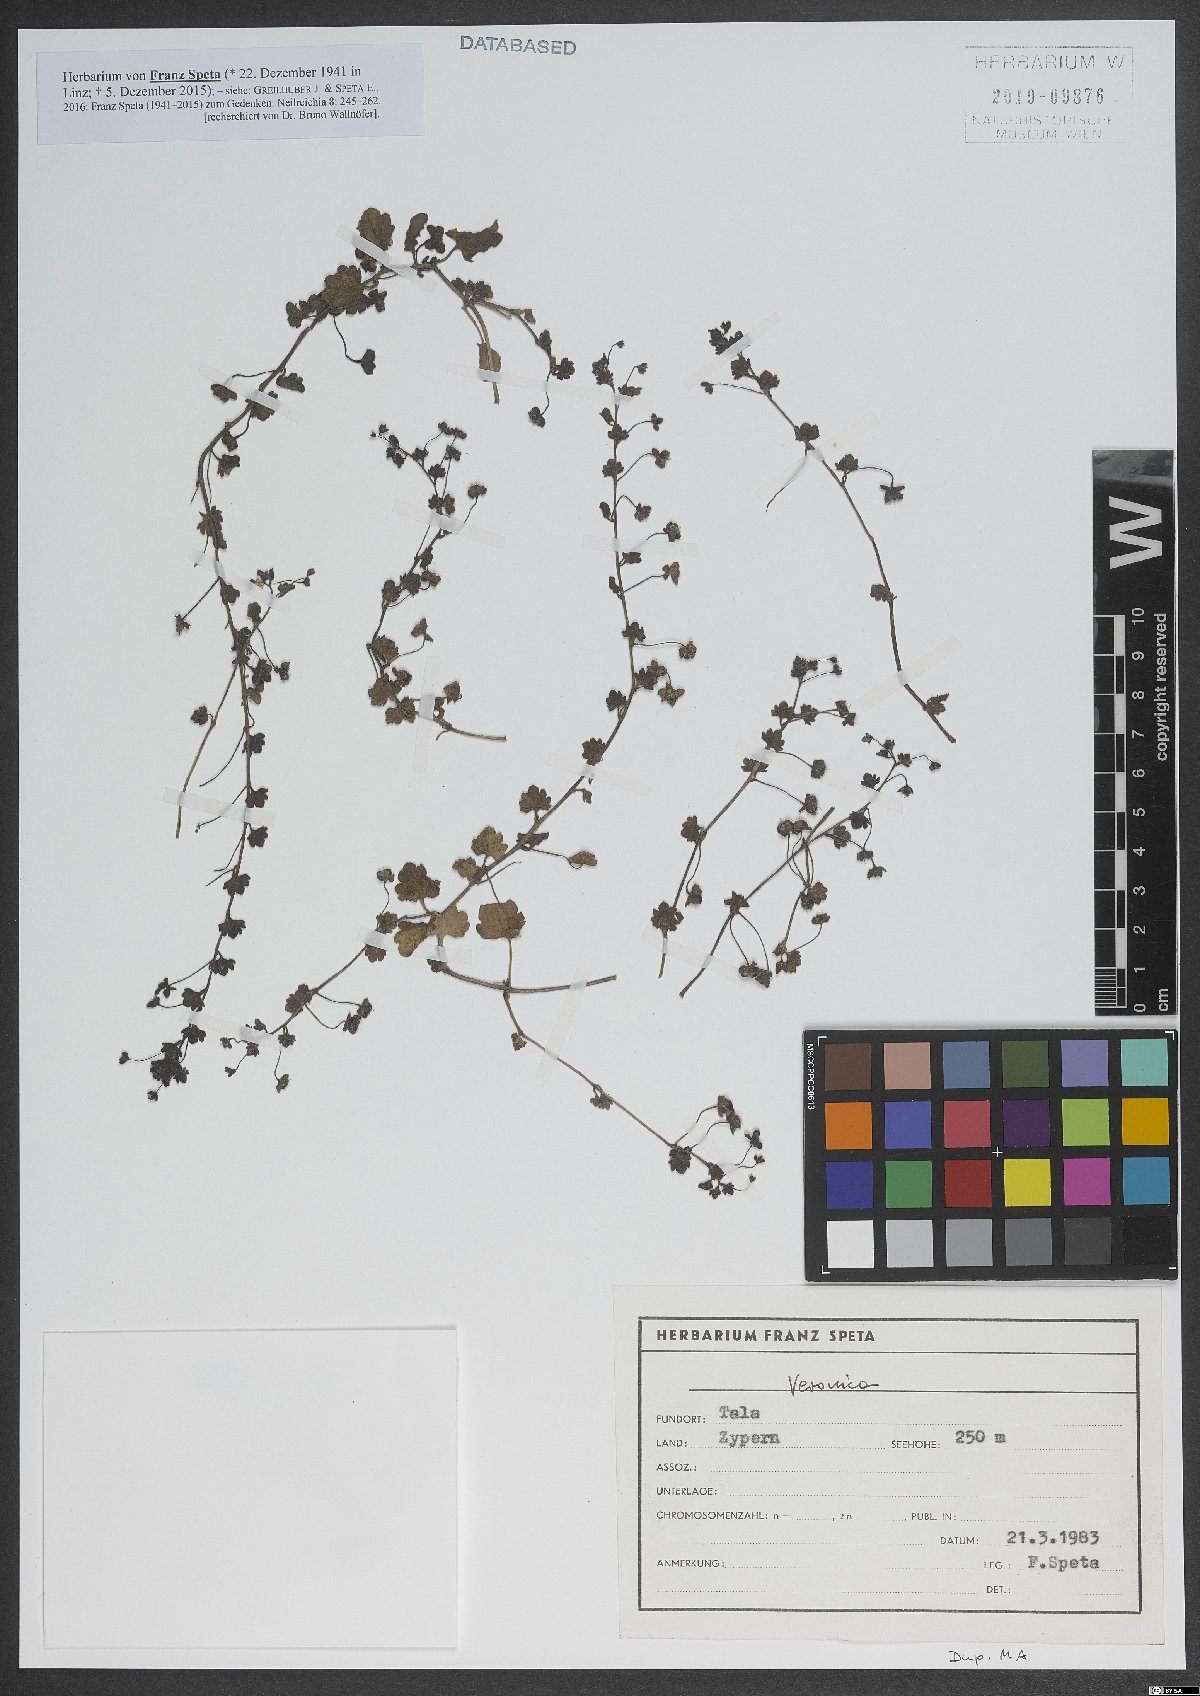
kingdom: Plantae
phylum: Tracheophyta
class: Magnoliopsida
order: Lamiales
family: Plantaginaceae
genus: Veronica
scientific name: Veronica
